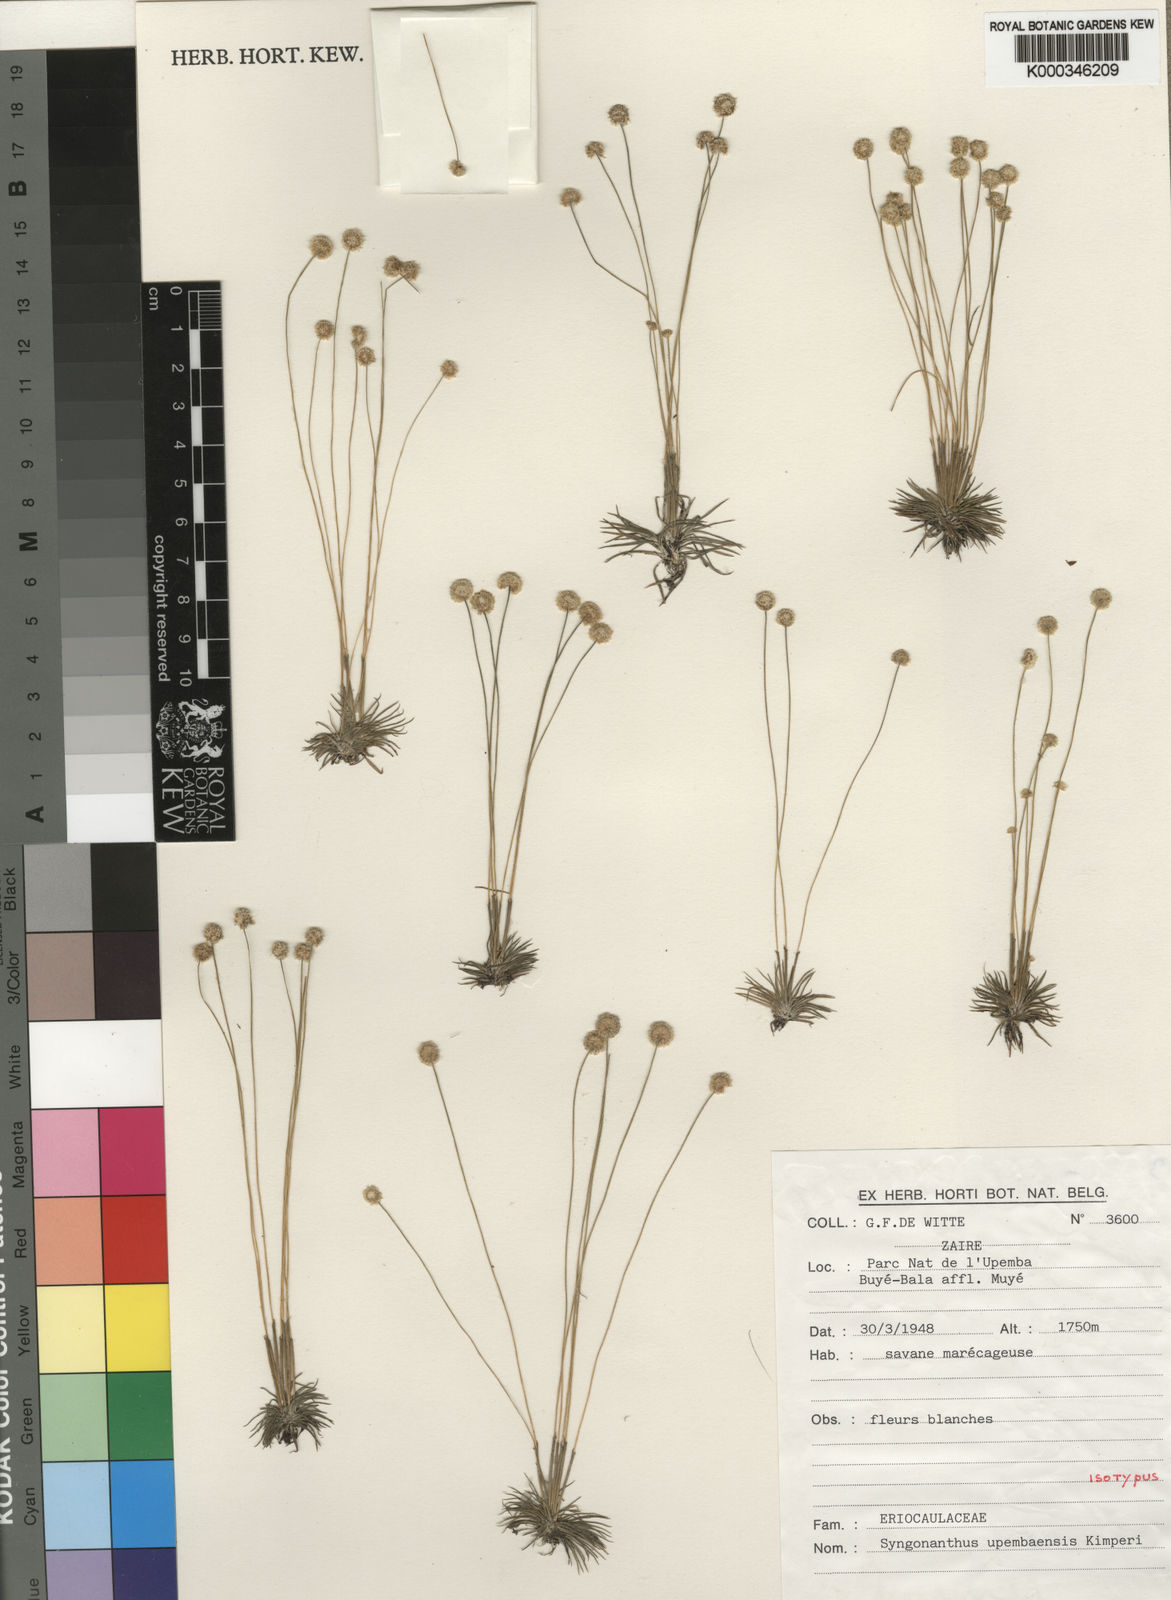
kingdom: Plantae
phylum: Tracheophyta
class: Liliopsida
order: Poales
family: Eriocaulaceae
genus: Syngonanthus
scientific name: Syngonanthus upembaensis
